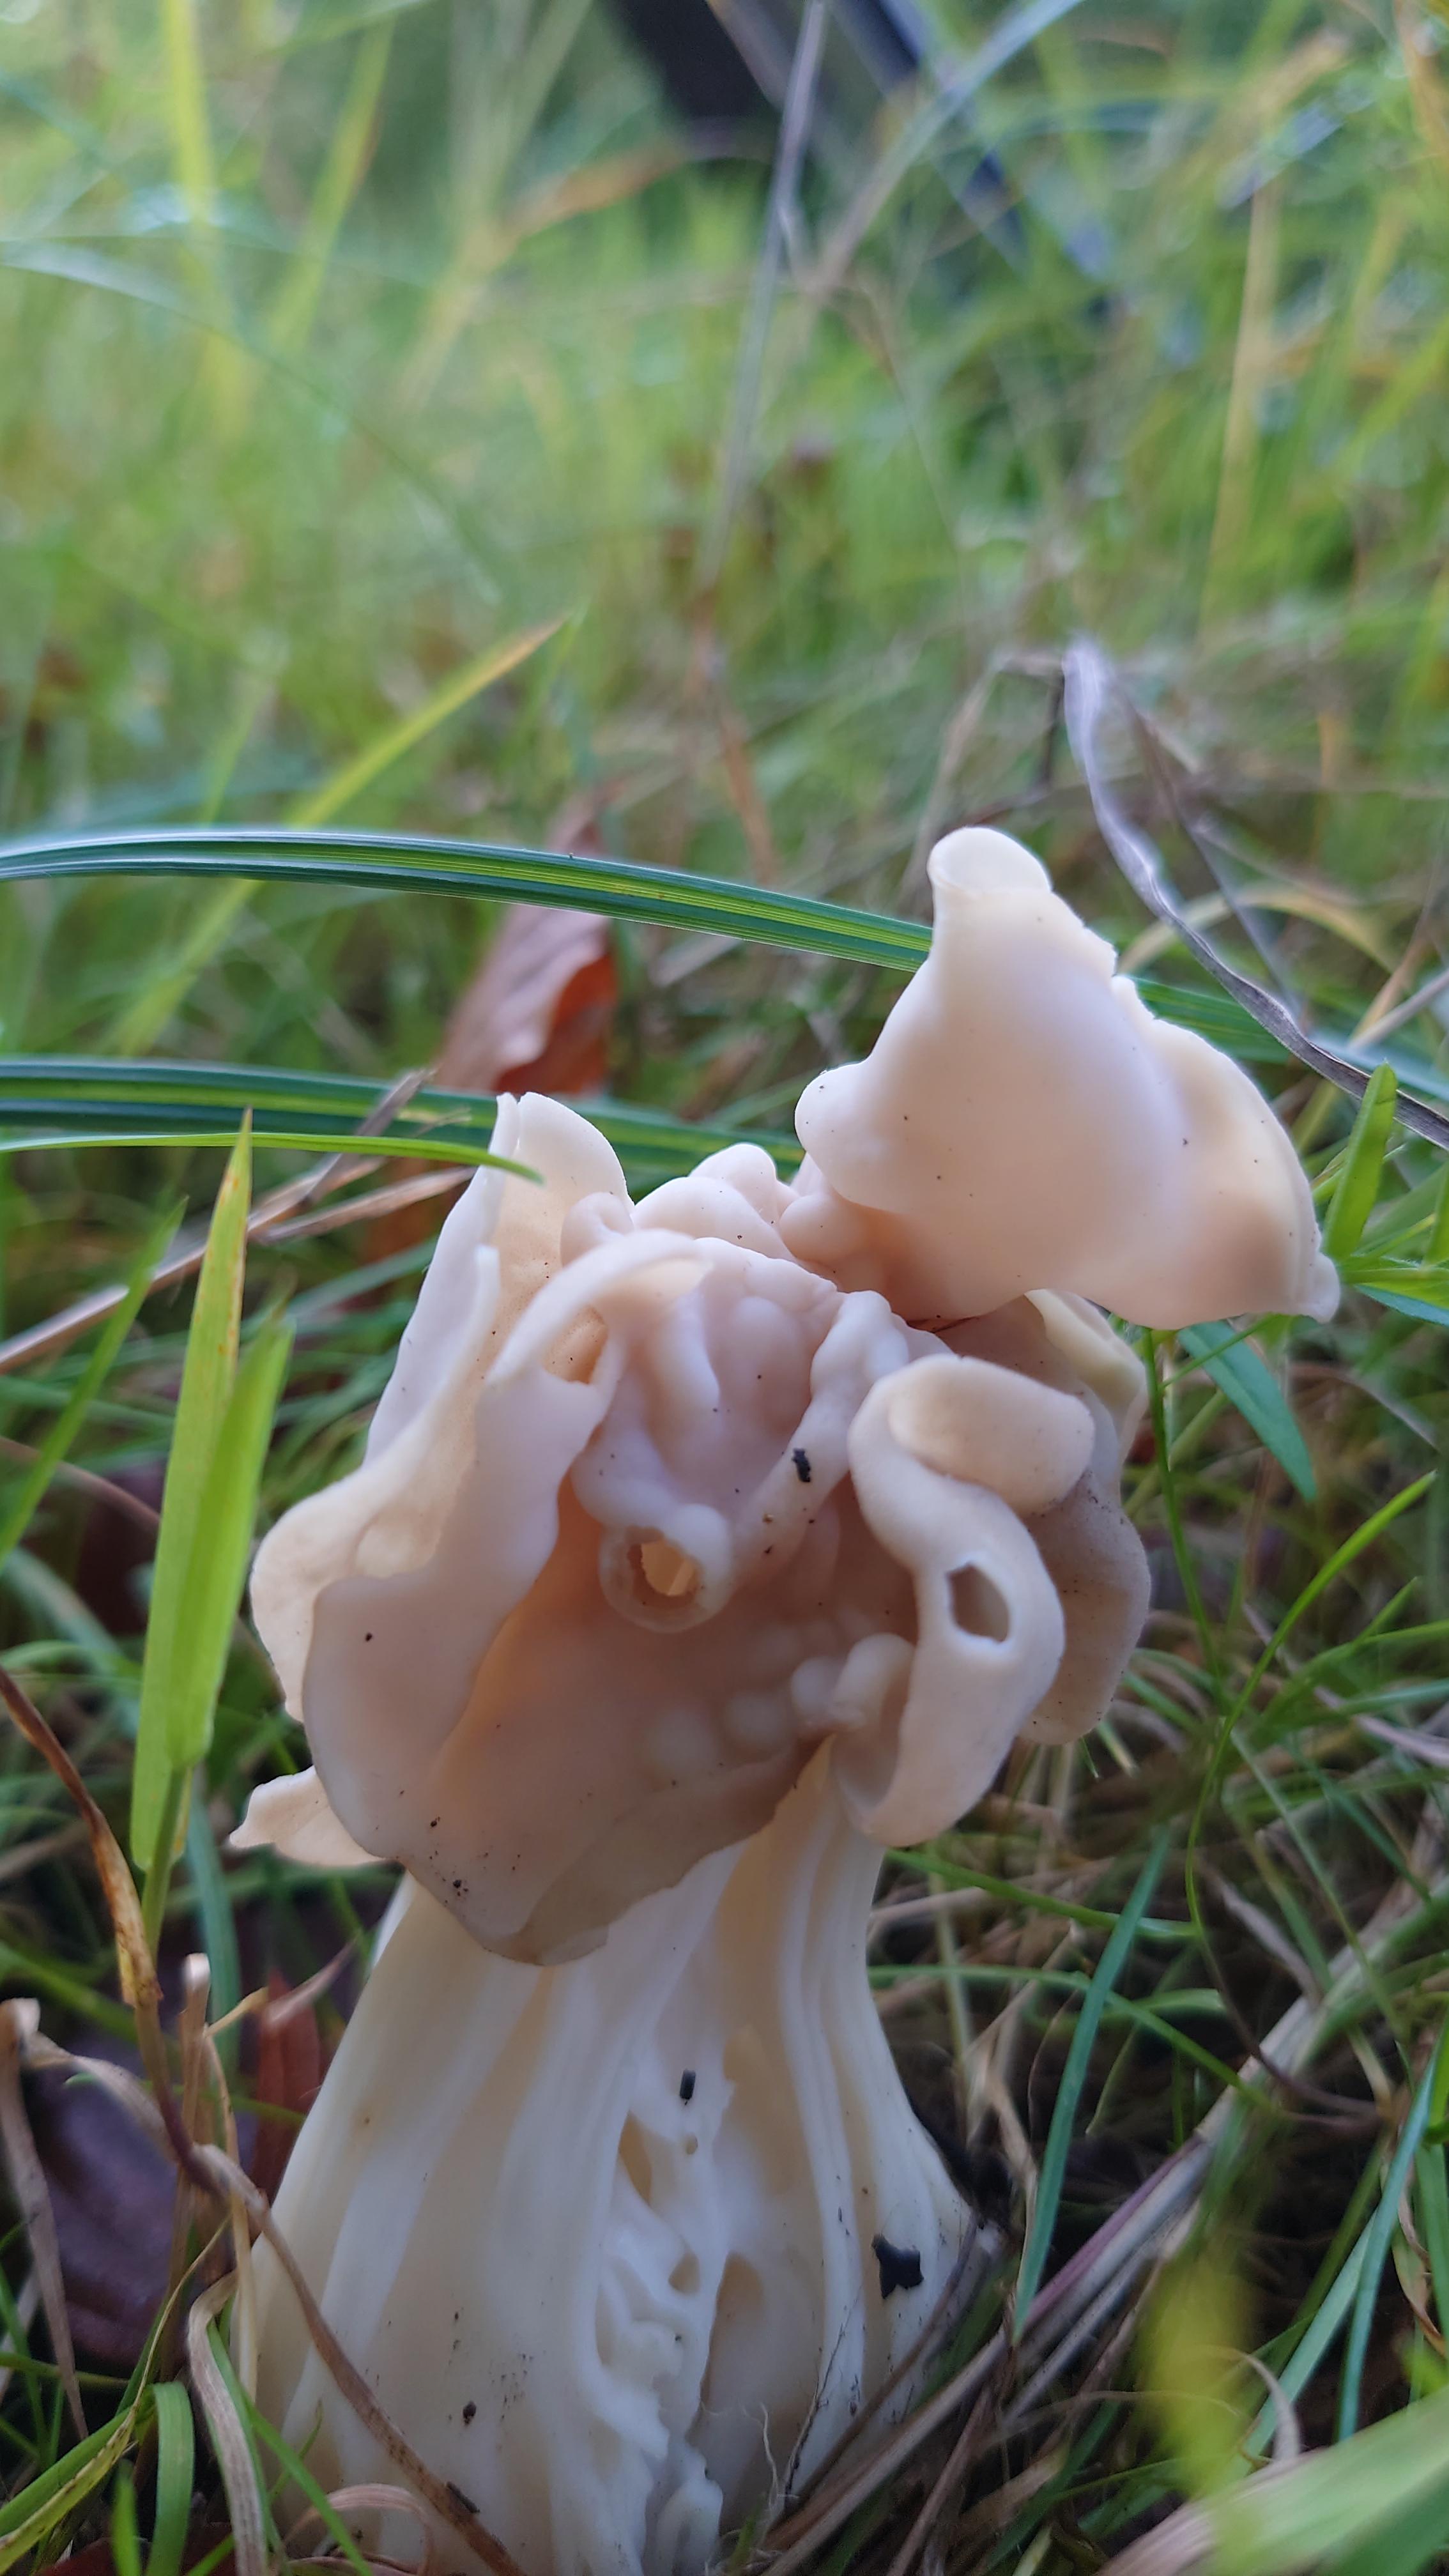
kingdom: Fungi
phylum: Ascomycota
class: Pezizomycetes
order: Pezizales
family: Helvellaceae
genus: Helvella
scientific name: Helvella crispa
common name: kruset foldhat
